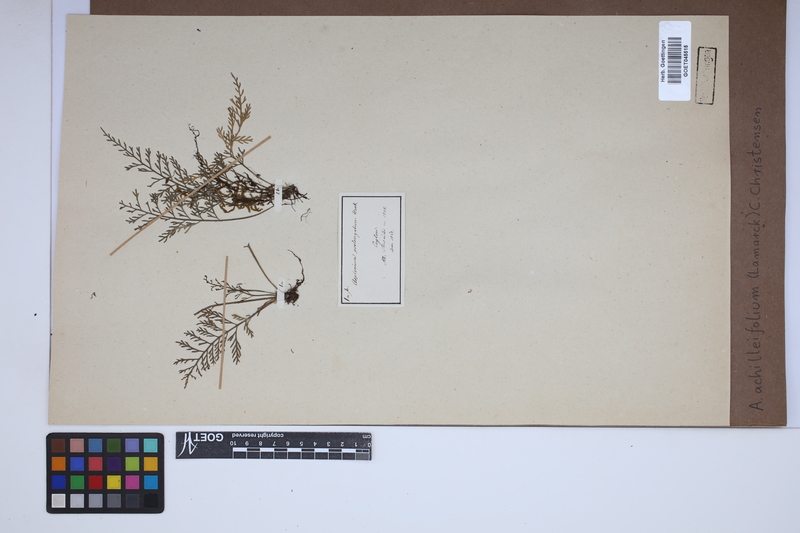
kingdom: Plantae
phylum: Tracheophyta
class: Polypodiopsida
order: Polypodiales
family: Aspleniaceae
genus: Asplenium
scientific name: Asplenium rutifolium
